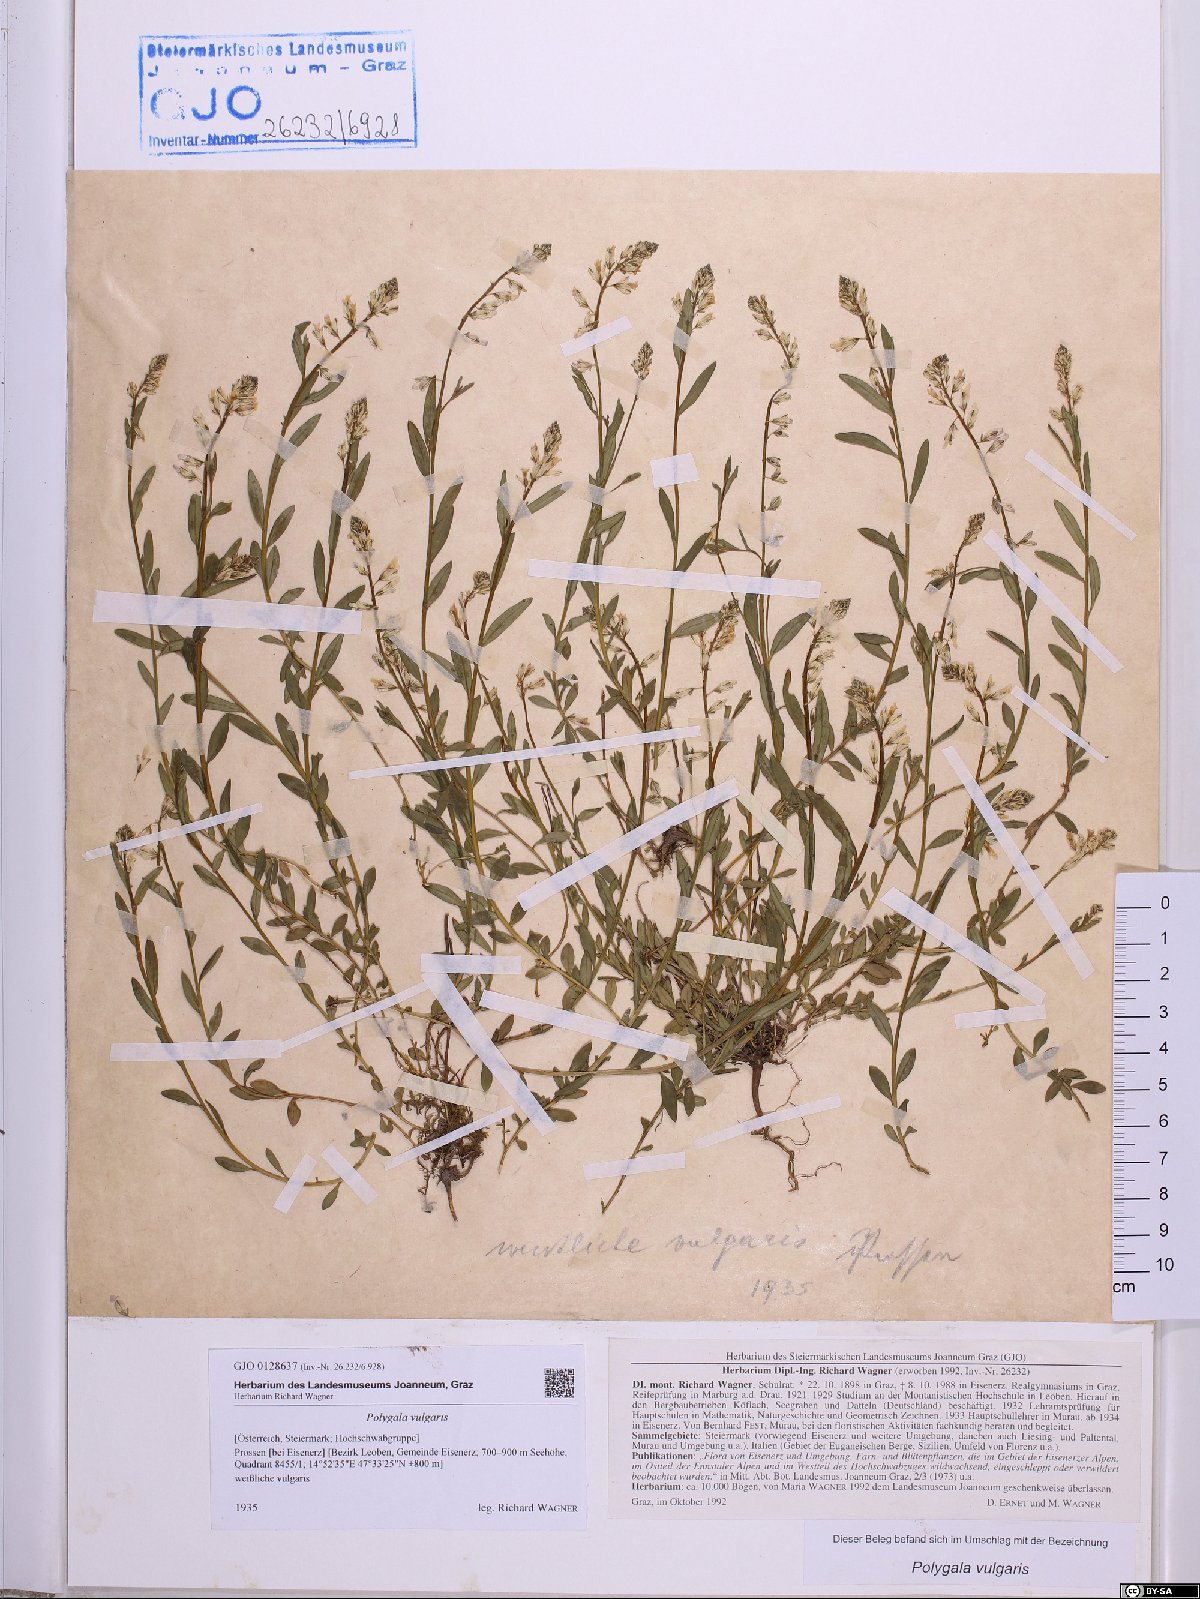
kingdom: Plantae
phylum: Tracheophyta
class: Magnoliopsida
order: Fabales
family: Polygalaceae
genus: Polygala
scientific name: Polygala vulgaris
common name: Common milkwort
